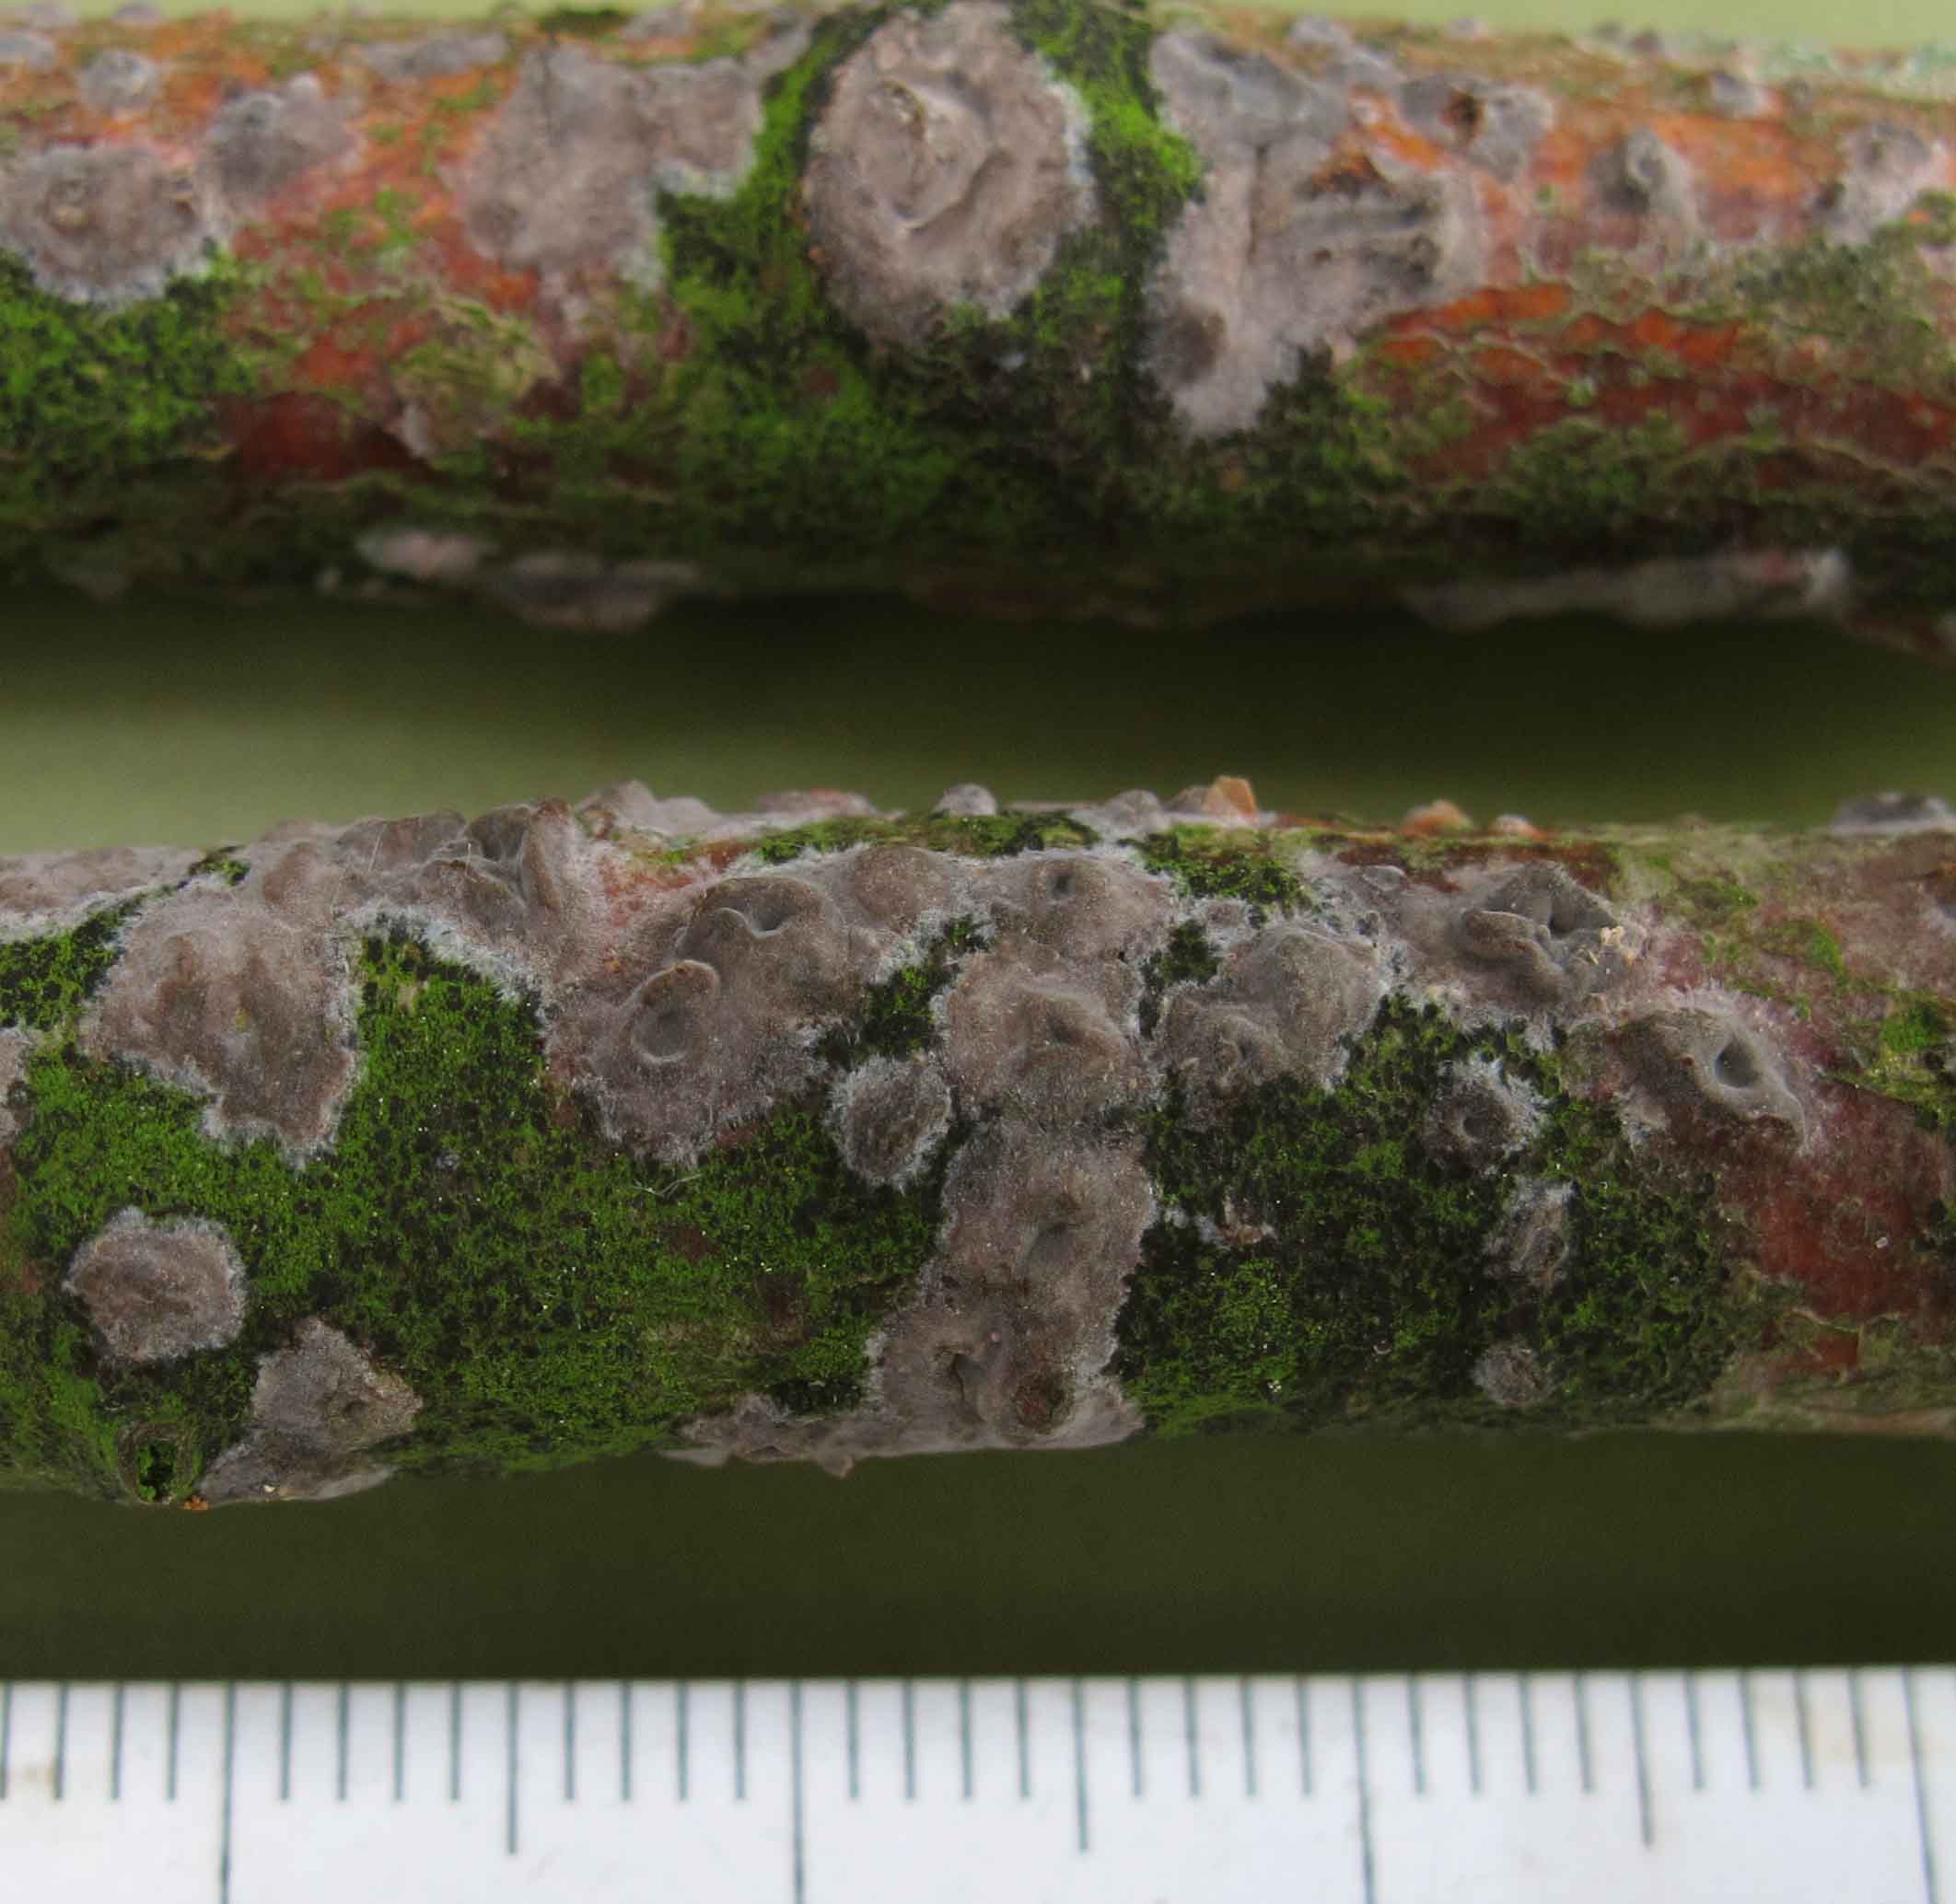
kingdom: Fungi
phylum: Basidiomycota
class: Agaricomycetes
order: Russulales
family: Peniophoraceae
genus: Peniophora
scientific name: Peniophora cinerea
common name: grå voksskind
